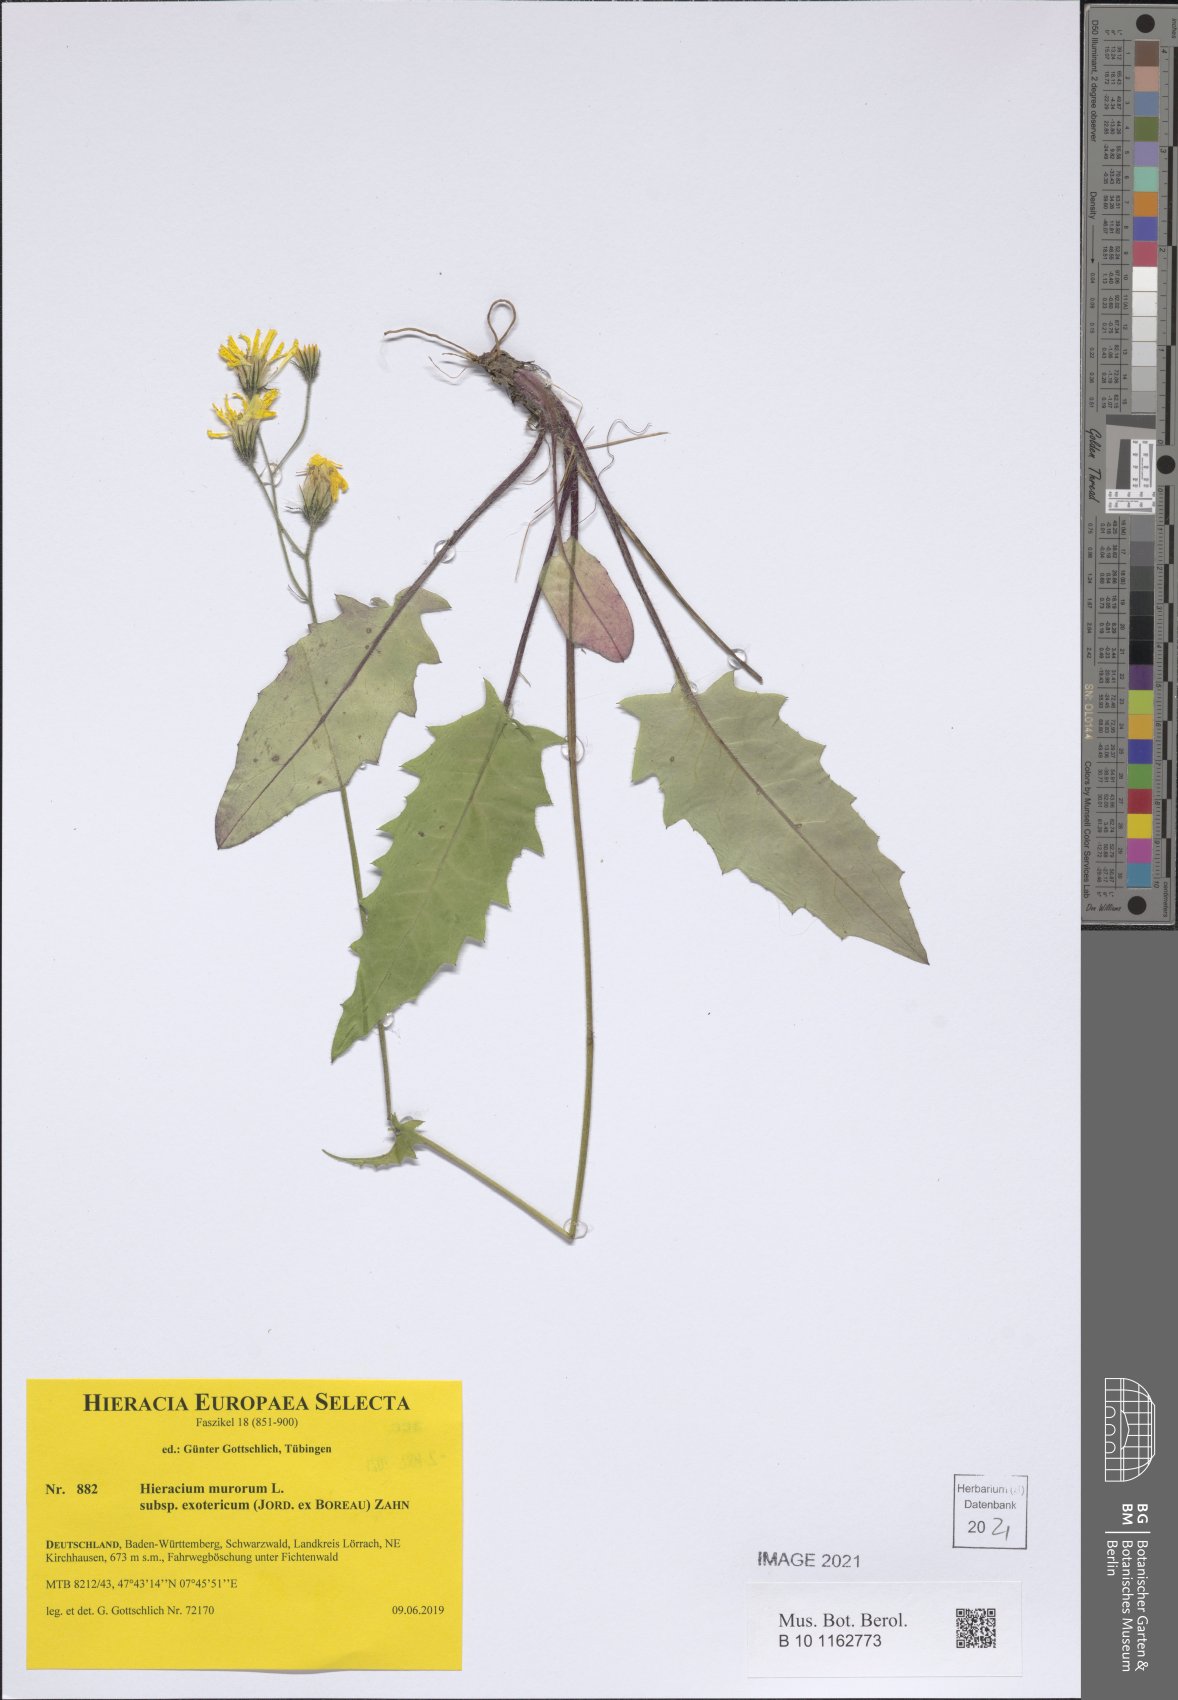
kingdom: Plantae
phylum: Tracheophyta
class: Magnoliopsida
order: Asterales
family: Asteraceae
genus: Hieracium
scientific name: Hieracium murorum
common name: Wall hawkweed
